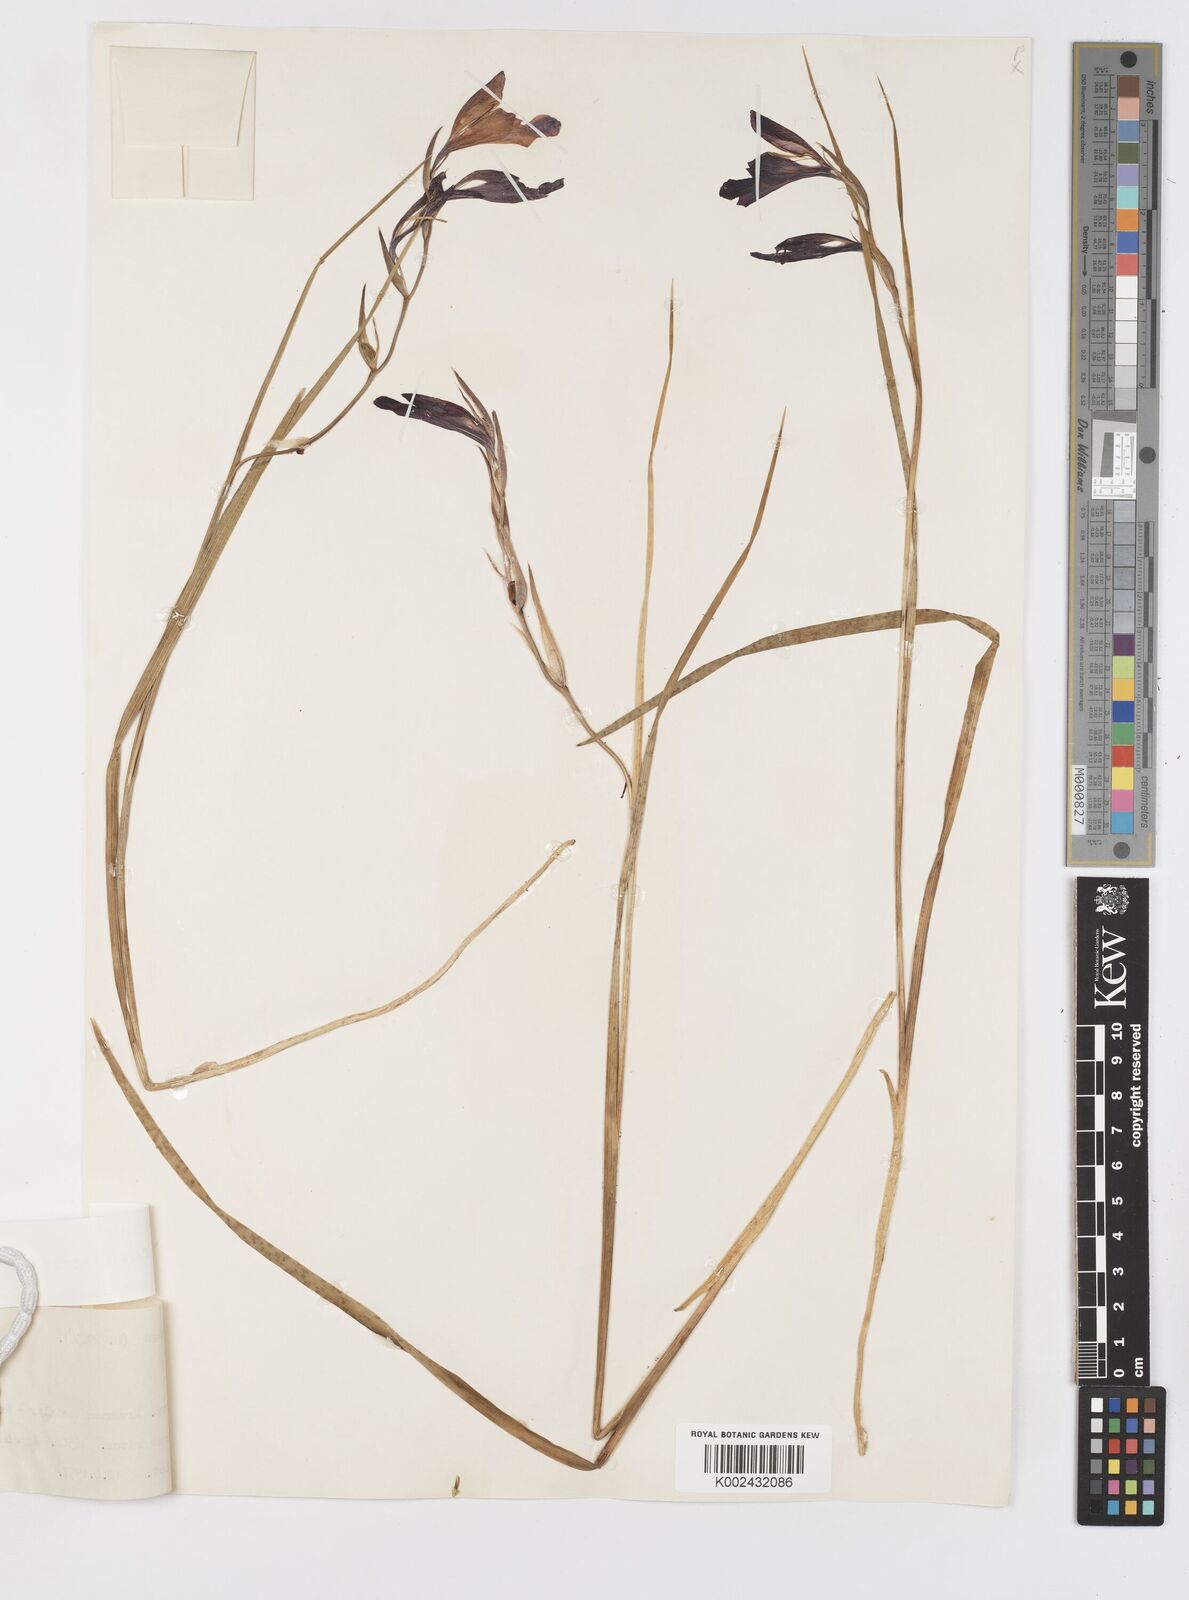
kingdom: Plantae
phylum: Tracheophyta
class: Liliopsida
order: Asparagales
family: Iridaceae
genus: Gladiolus
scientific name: Gladiolus atroviolaceus
